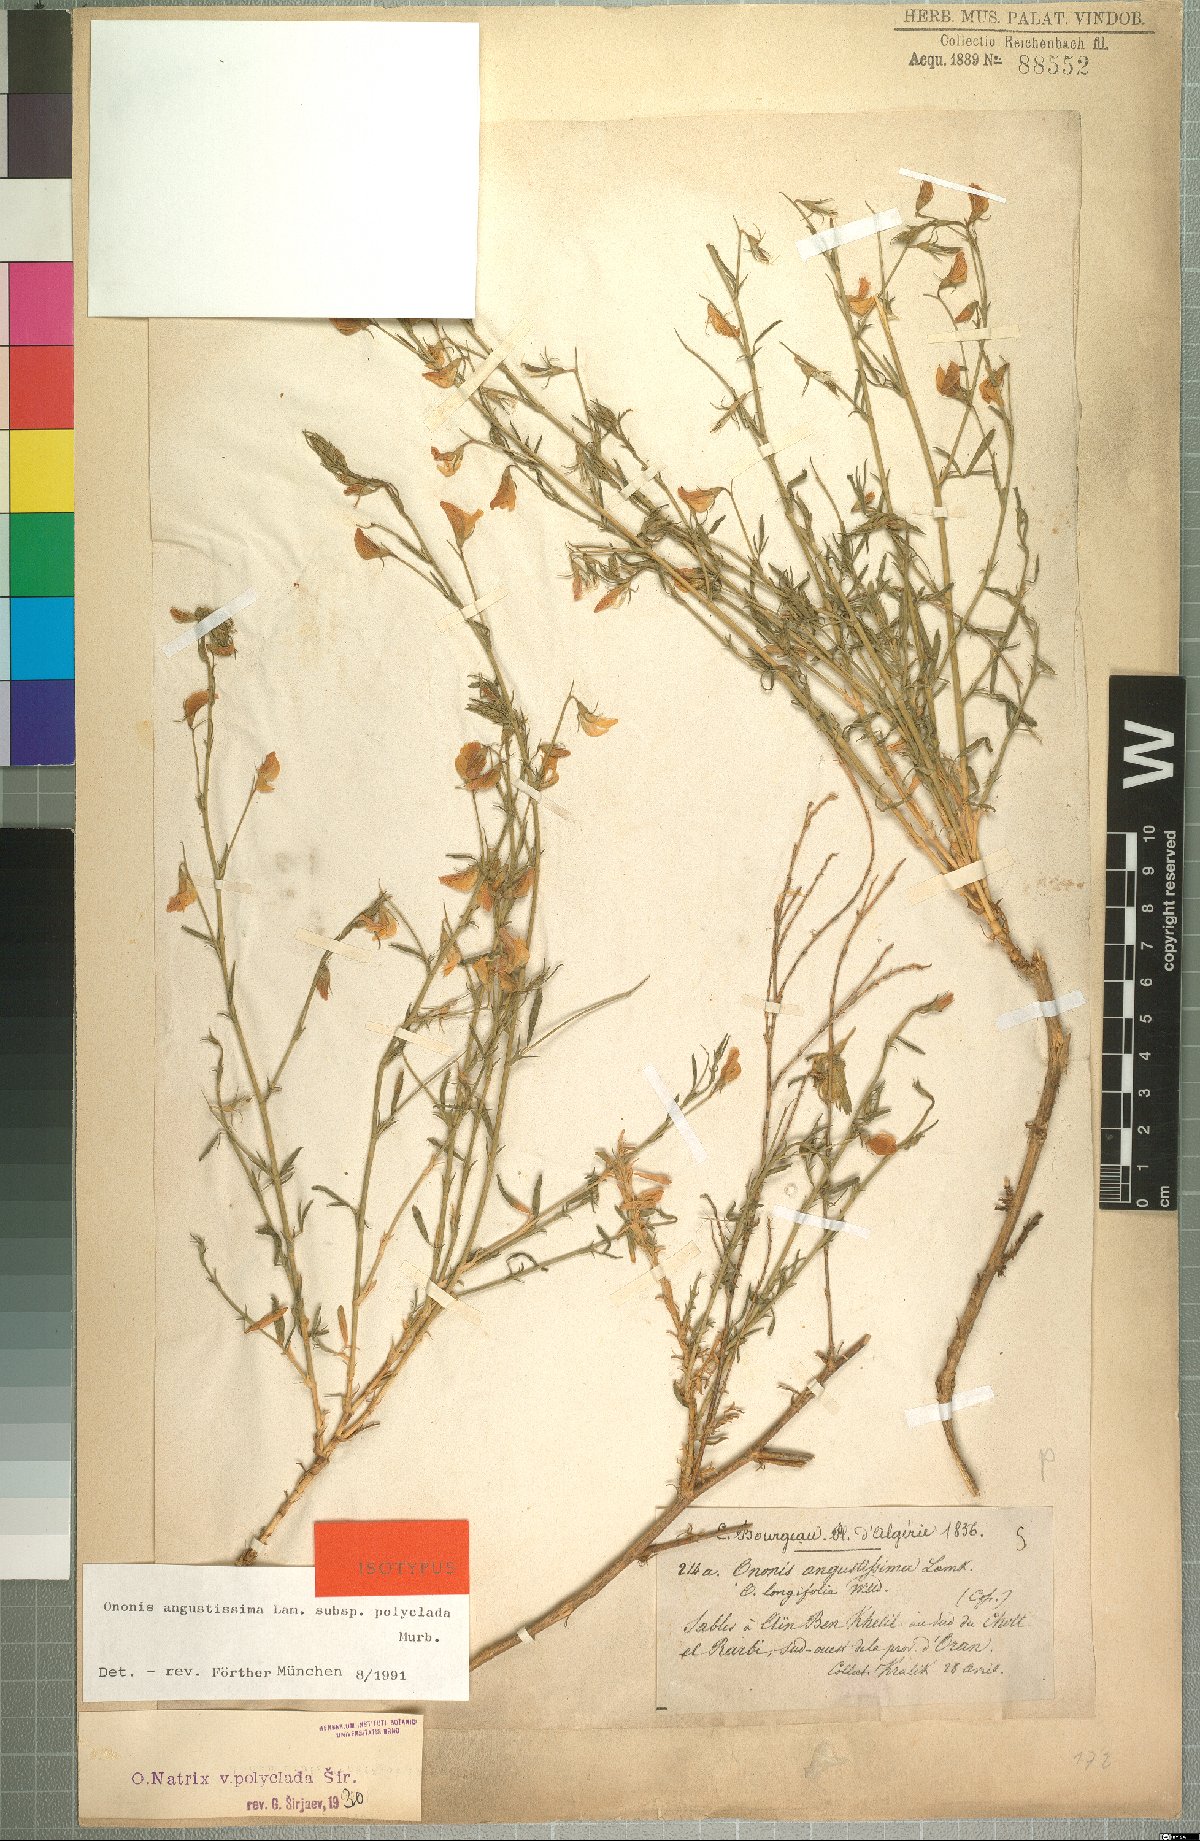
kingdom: Plantae
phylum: Tracheophyta
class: Magnoliopsida
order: Fabales
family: Fabaceae
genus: Ononis
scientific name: Ononis angustissima
